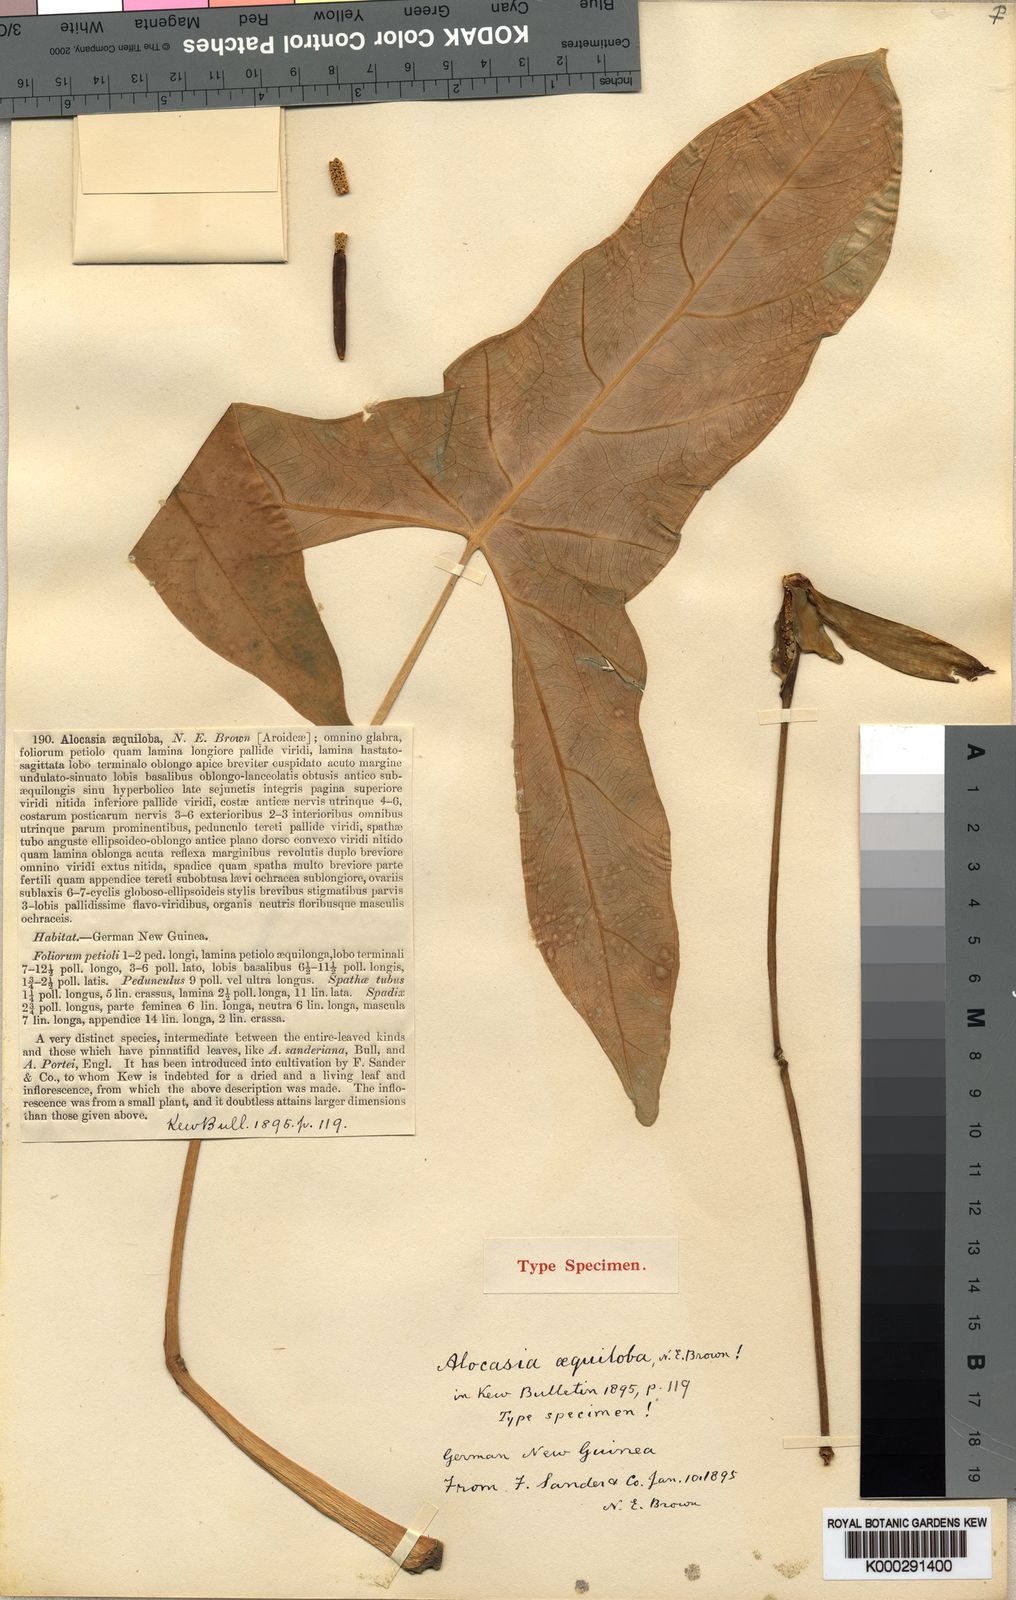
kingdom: Plantae
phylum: Tracheophyta
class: Liliopsida
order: Alismatales
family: Araceae
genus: Alocasia
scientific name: Alocasia aequiloba
